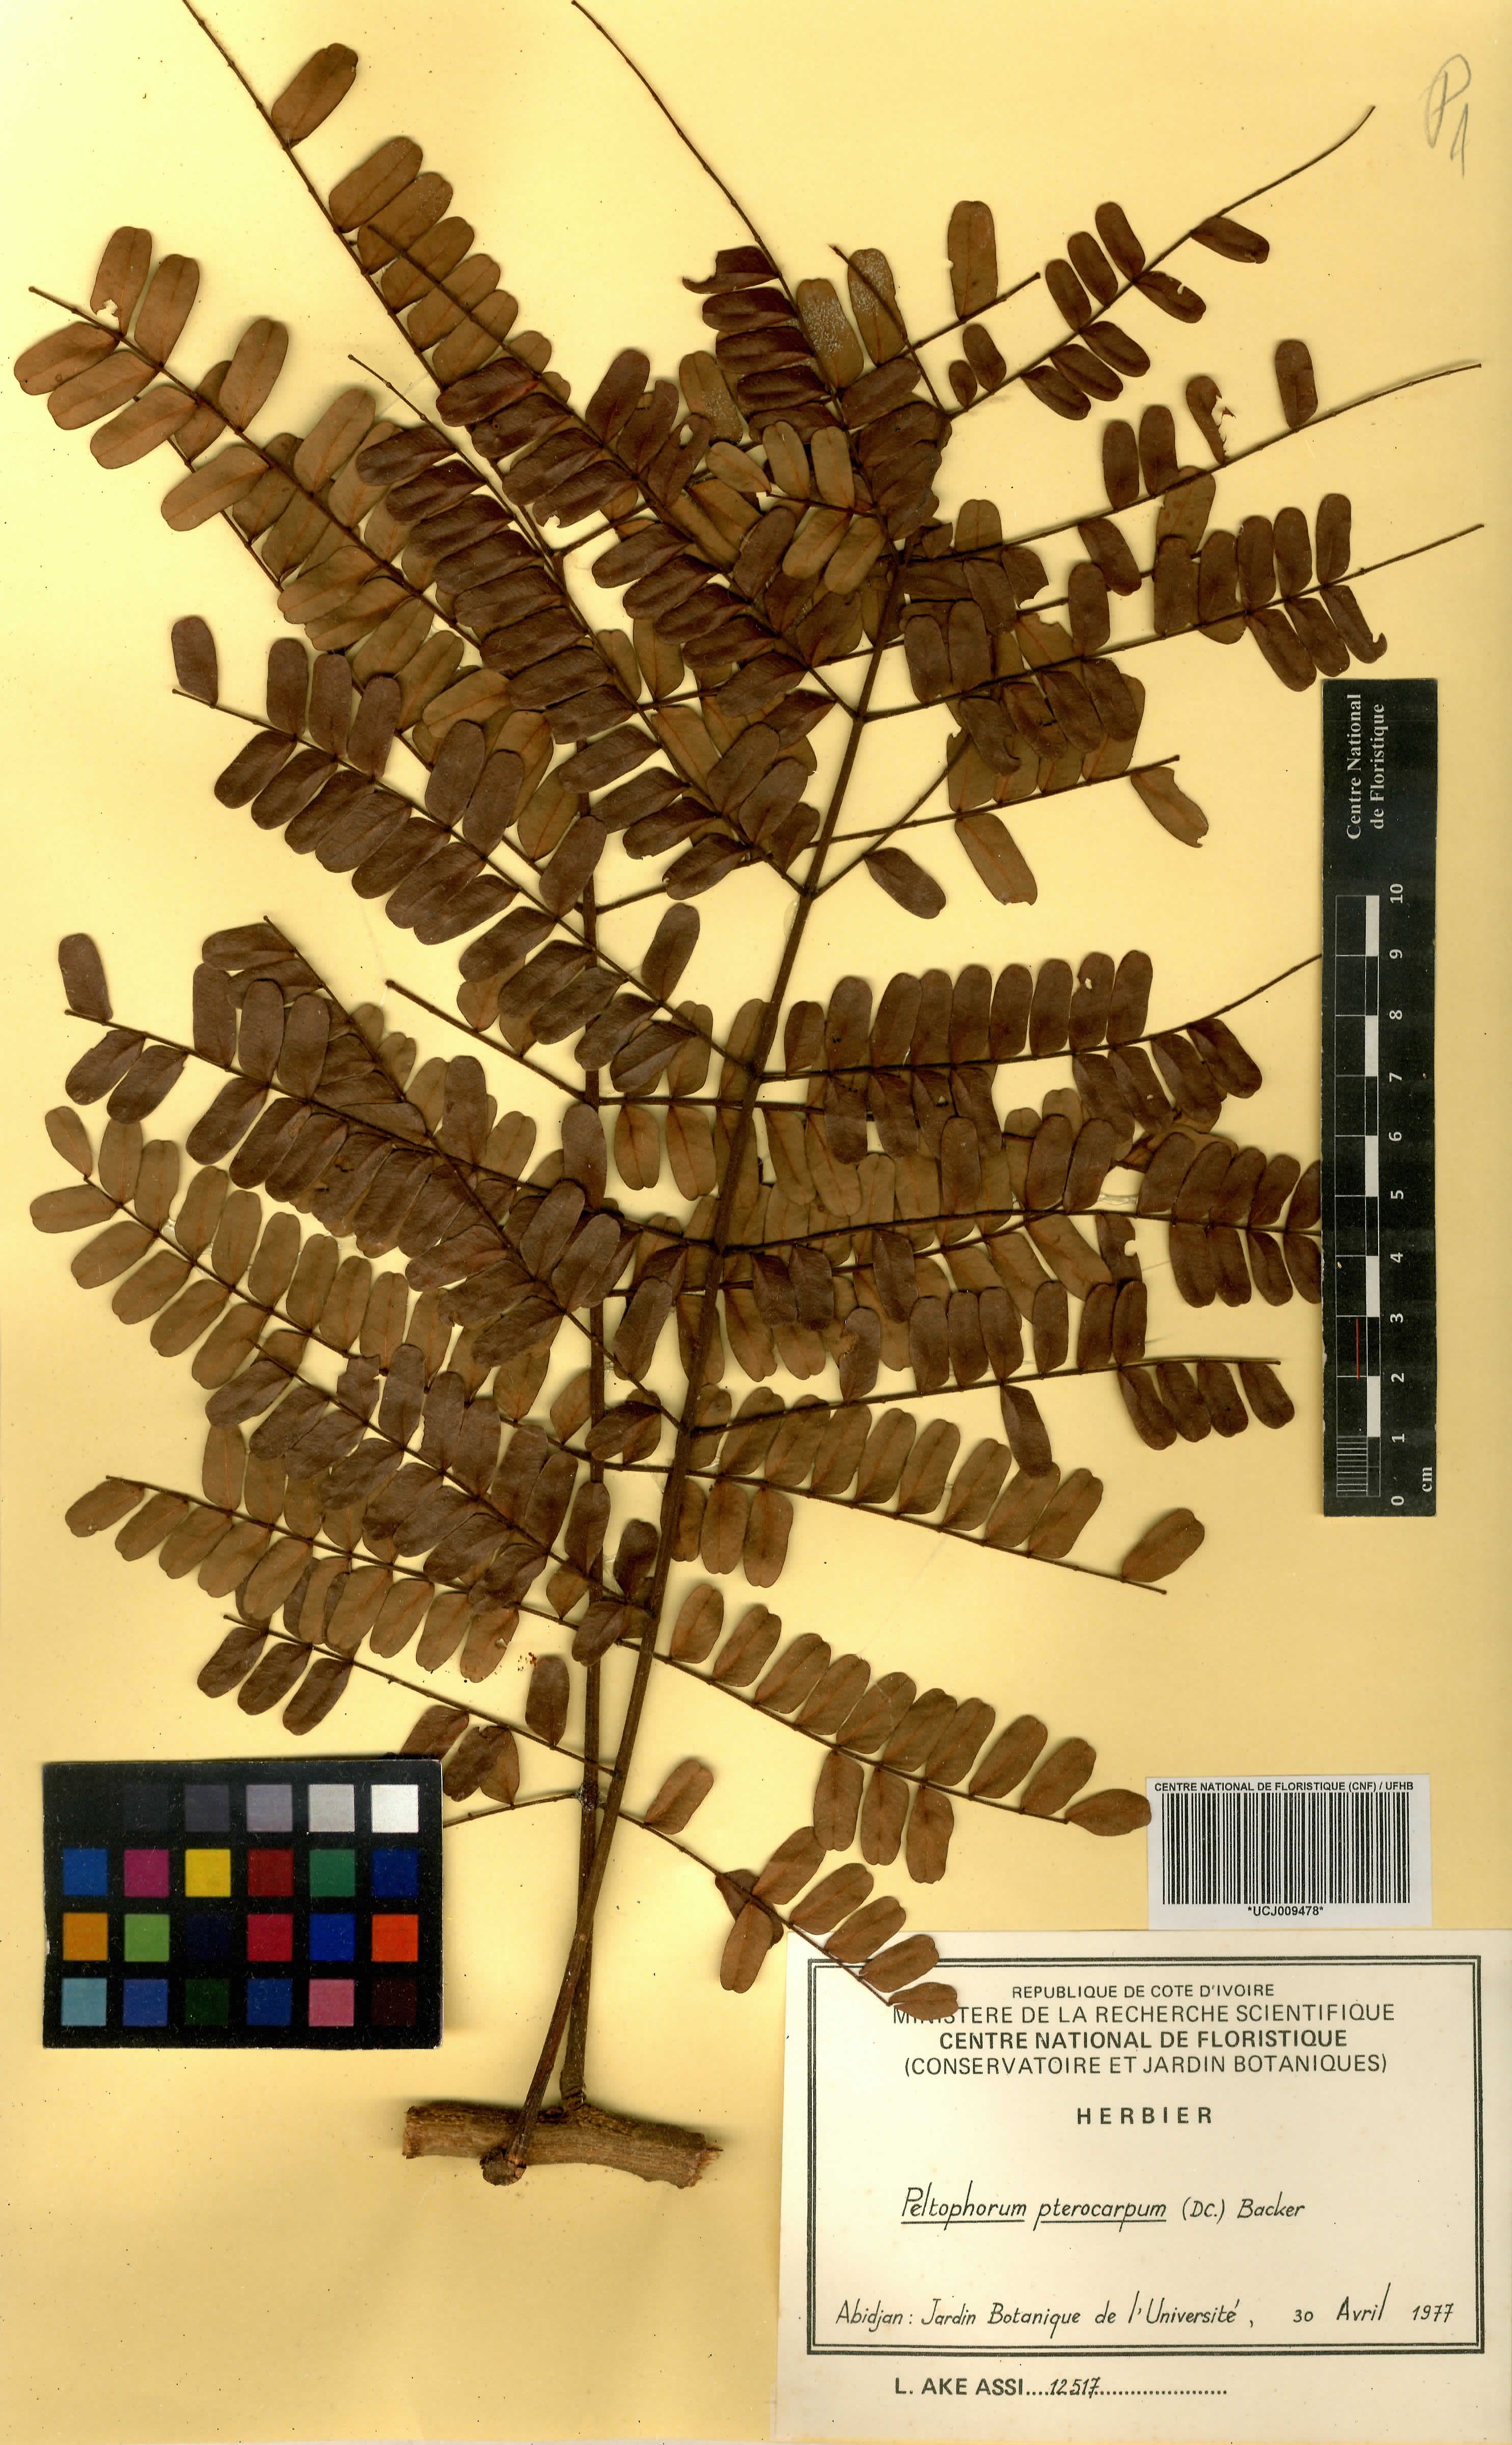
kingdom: Plantae
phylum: Tracheophyta
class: Magnoliopsida
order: Fabales
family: Fabaceae
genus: Peltophorum
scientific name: Peltophorum pterocarpum
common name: Yellow flame
